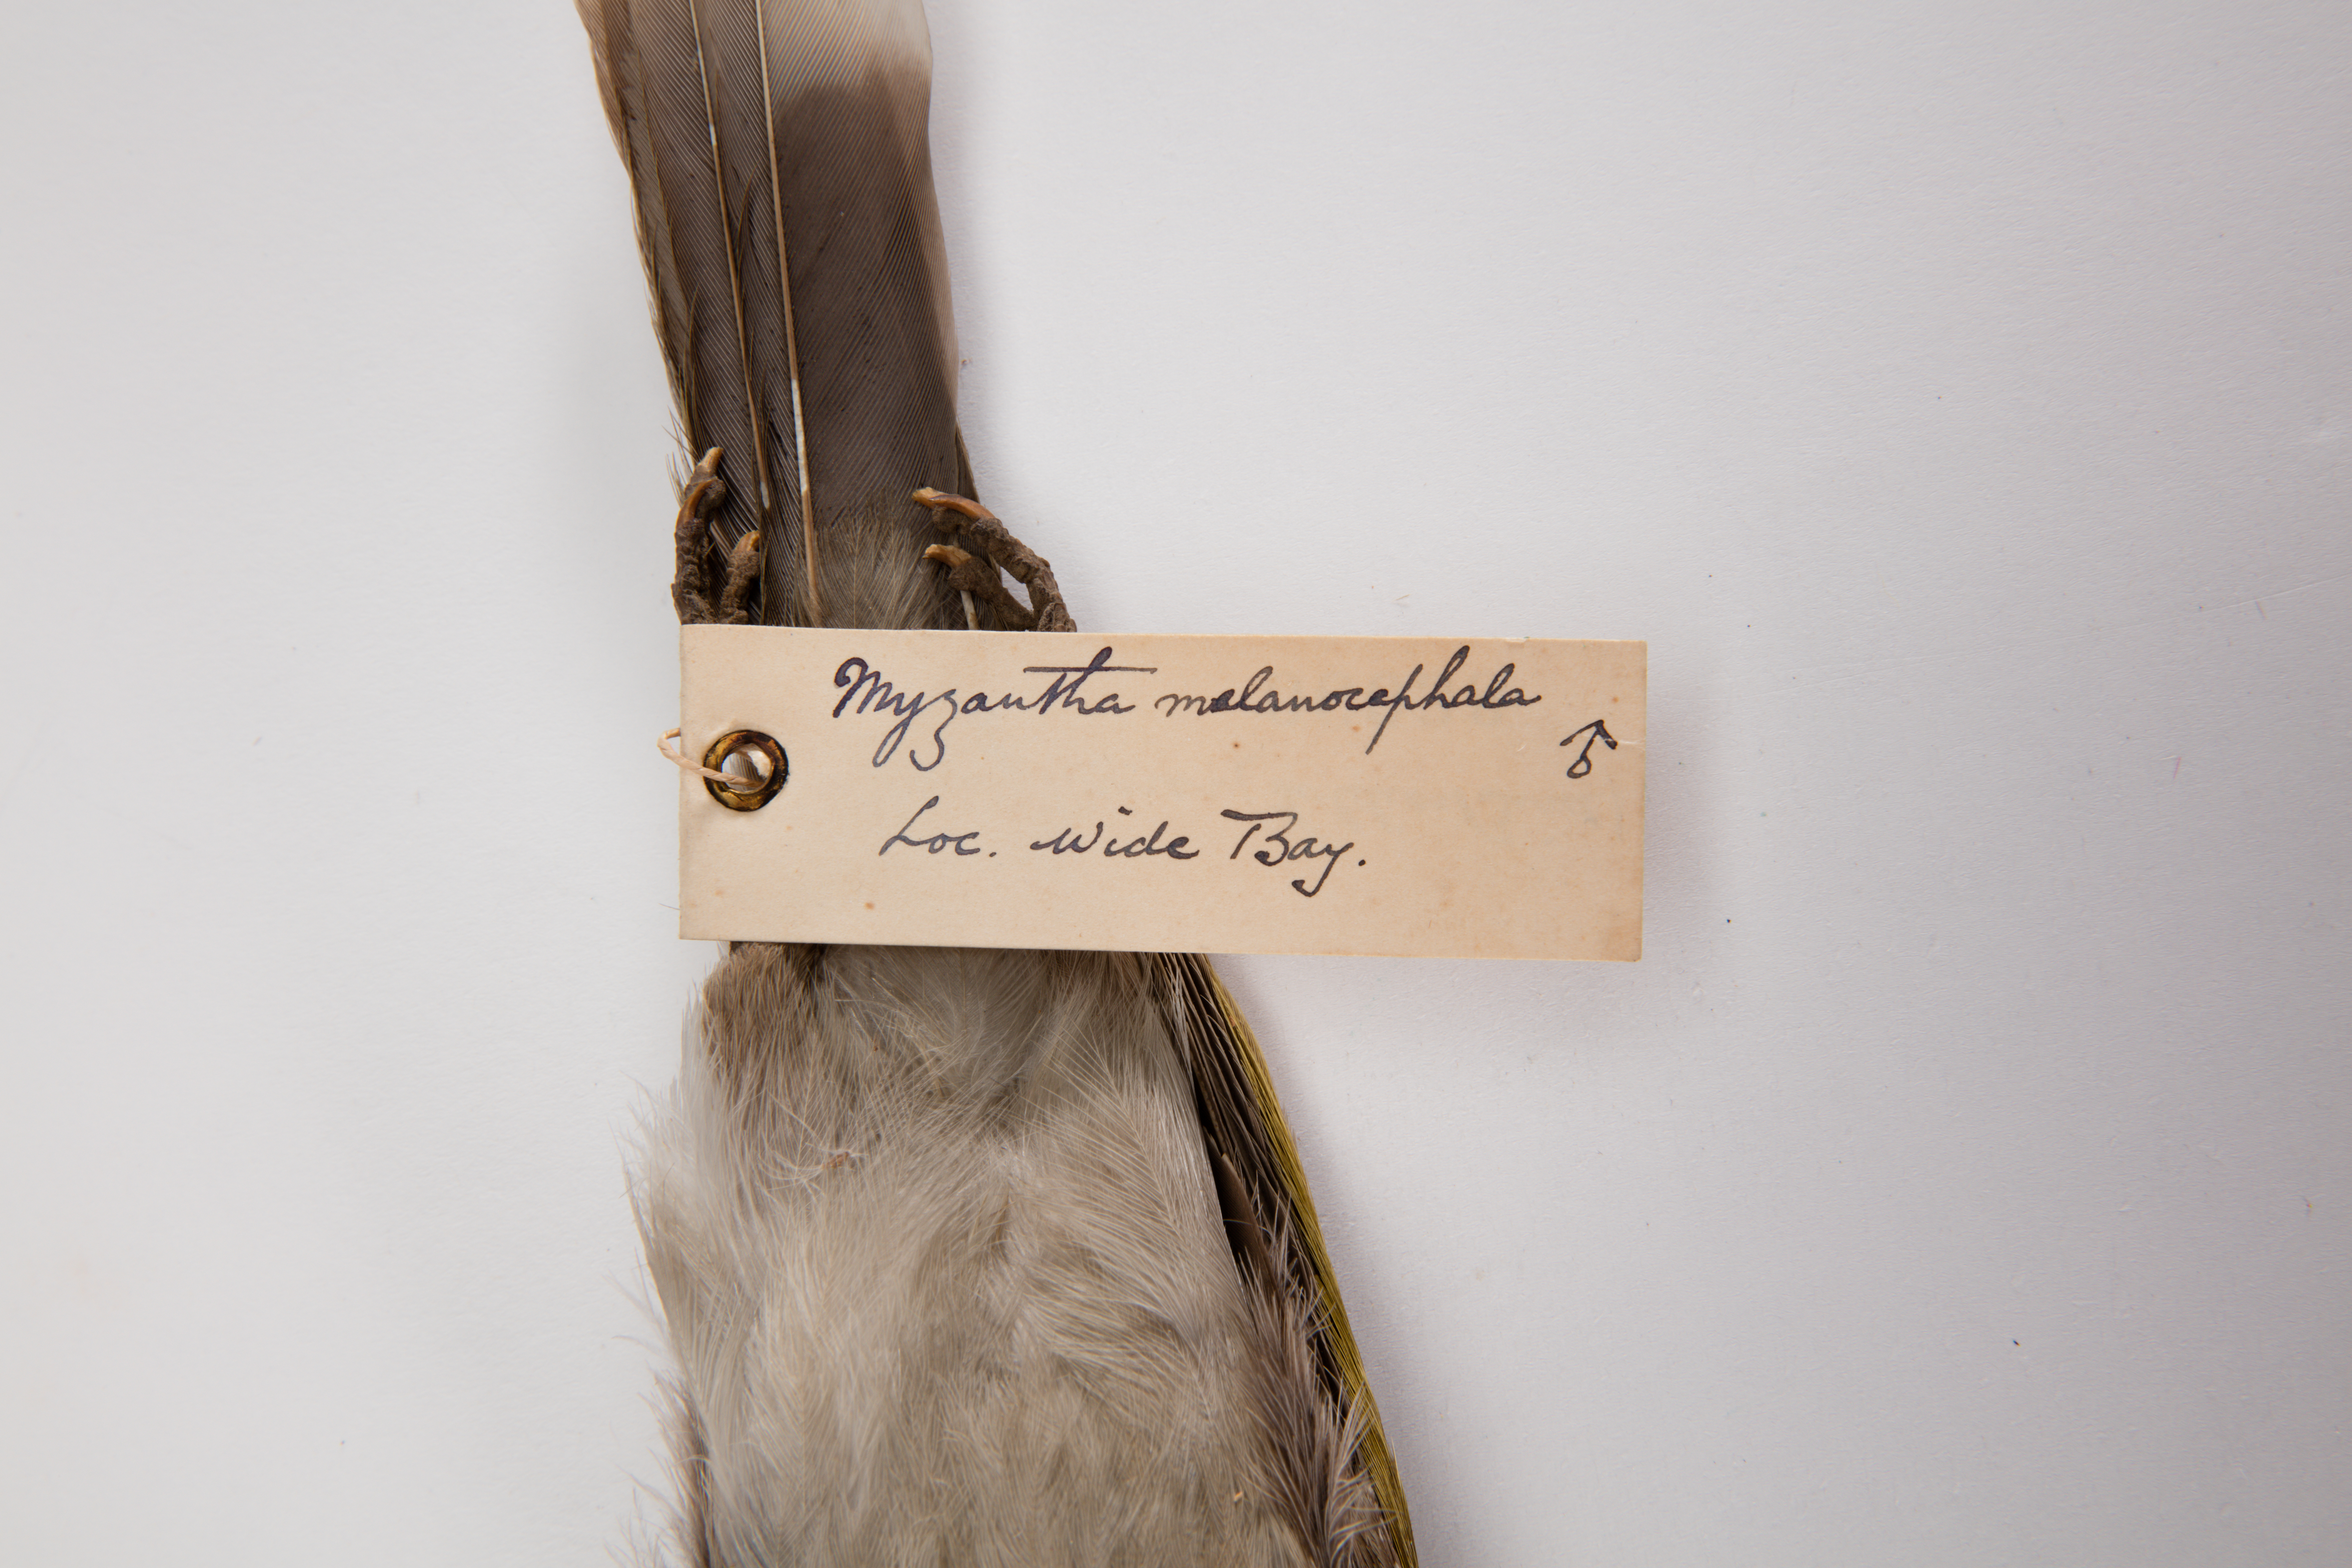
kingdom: Animalia
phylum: Chordata
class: Aves
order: Passeriformes
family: Meliphagidae
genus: Manorina
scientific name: Manorina melanocephala
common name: Noisy miner
